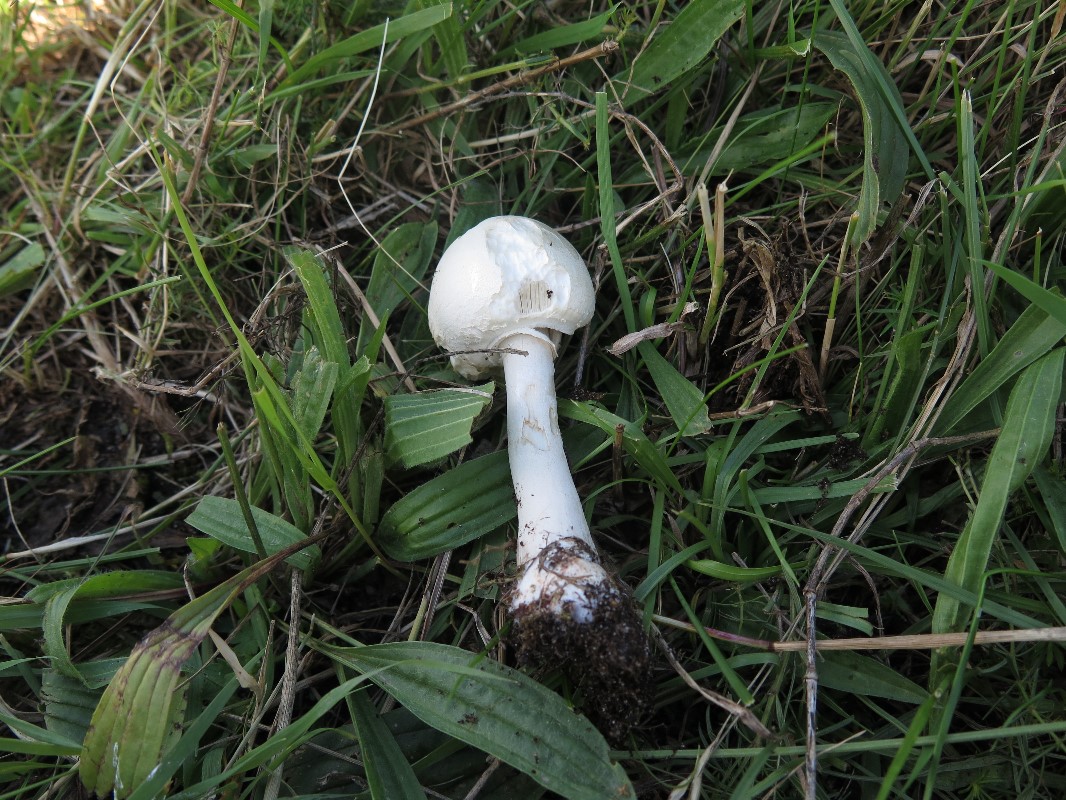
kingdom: Fungi
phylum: Basidiomycota
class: Agaricomycetes
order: Agaricales
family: Agaricaceae
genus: Macrolepiota
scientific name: Macrolepiota excoriata
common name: mark-kæmpeparasolhat
